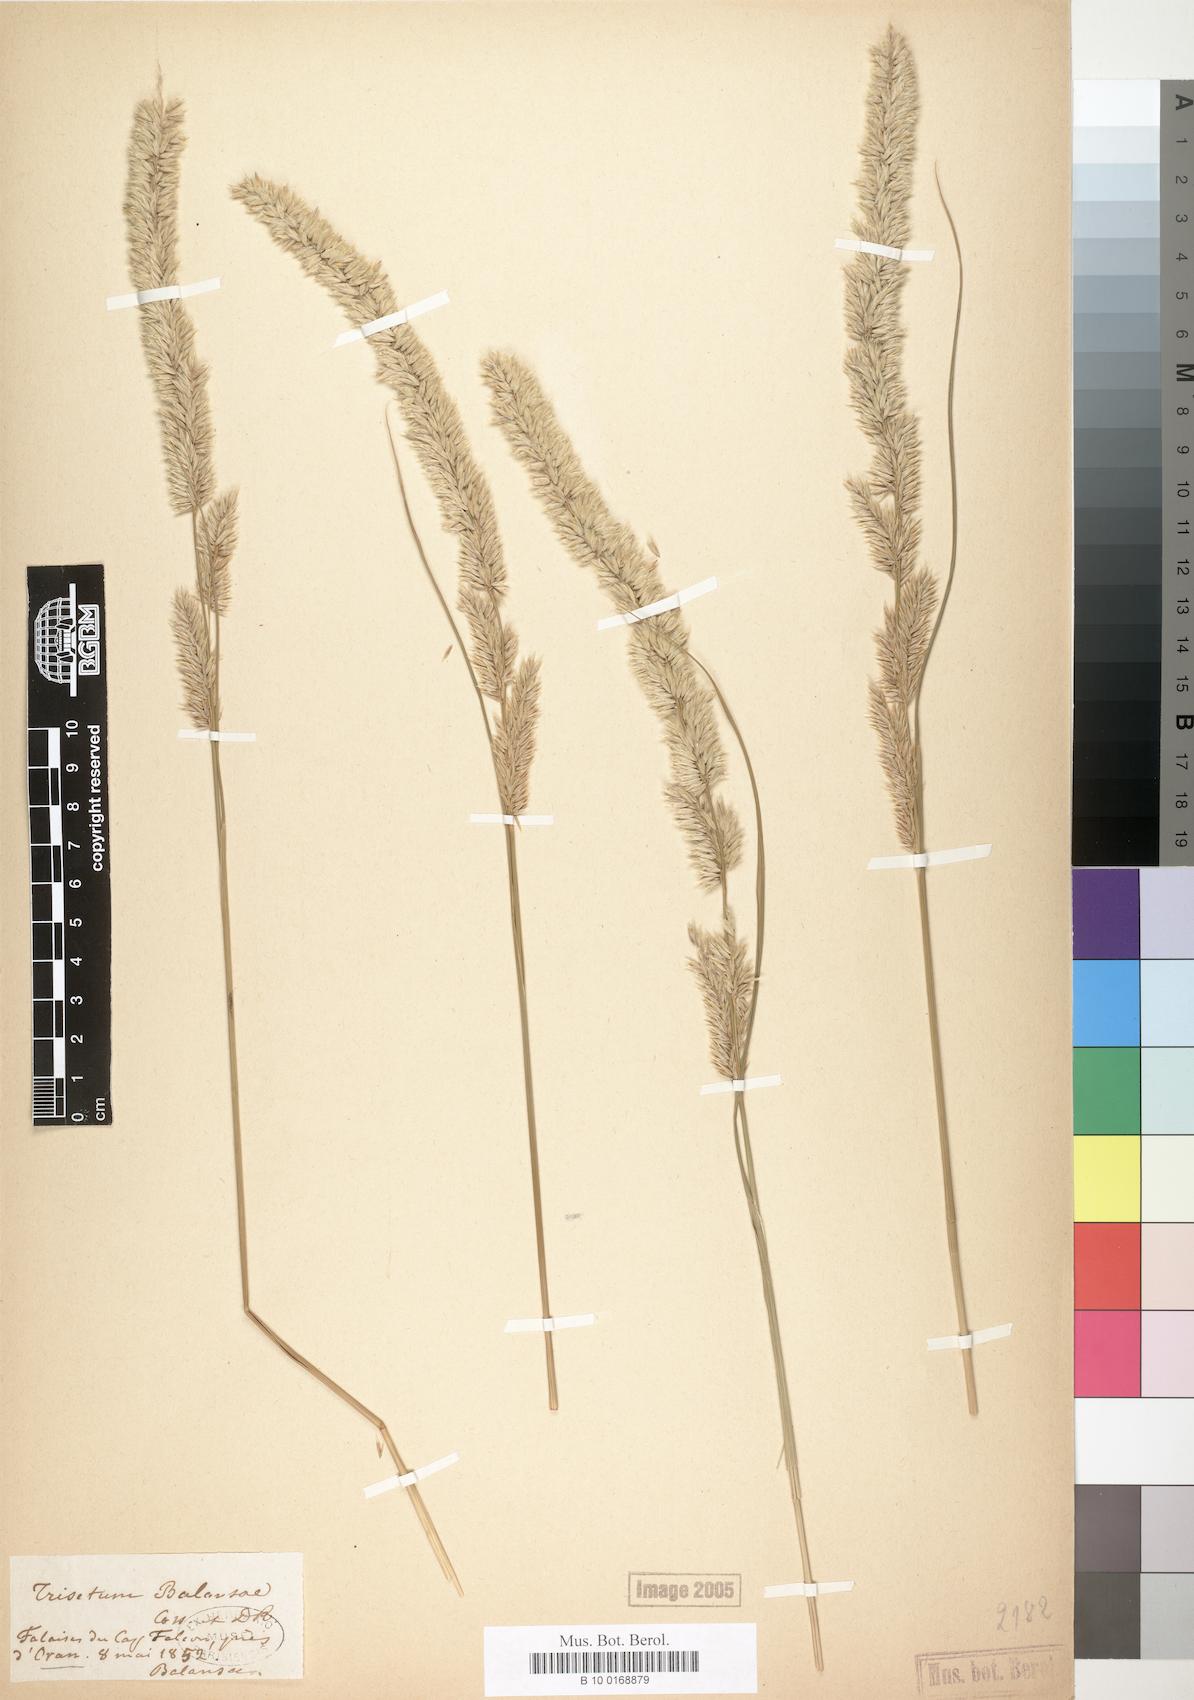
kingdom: Plantae
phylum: Tracheophyta
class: Liliopsida
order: Poales
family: Poaceae
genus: Trisetum
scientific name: Trisetum
